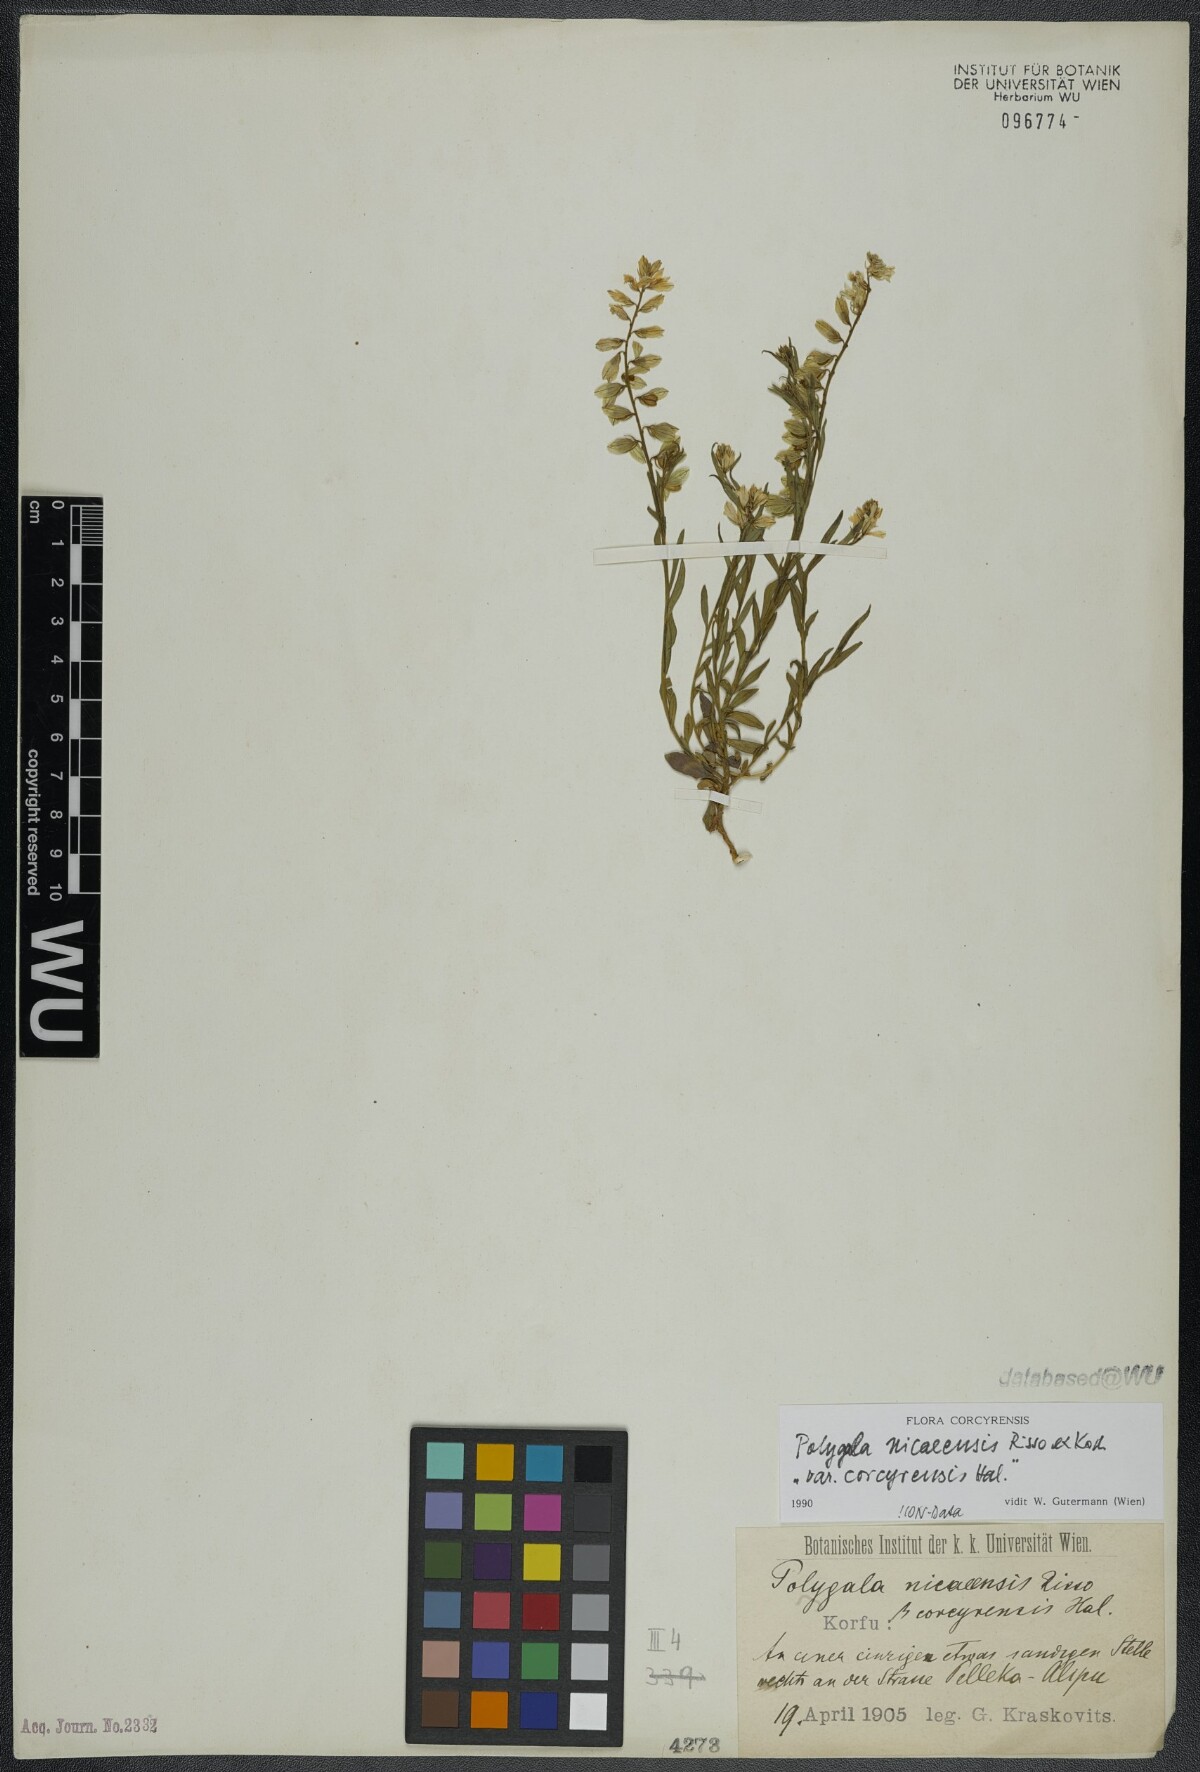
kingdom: Plantae
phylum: Tracheophyta
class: Magnoliopsida
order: Fabales
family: Polygalaceae
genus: Polygala
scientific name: Polygala nicaeensis
